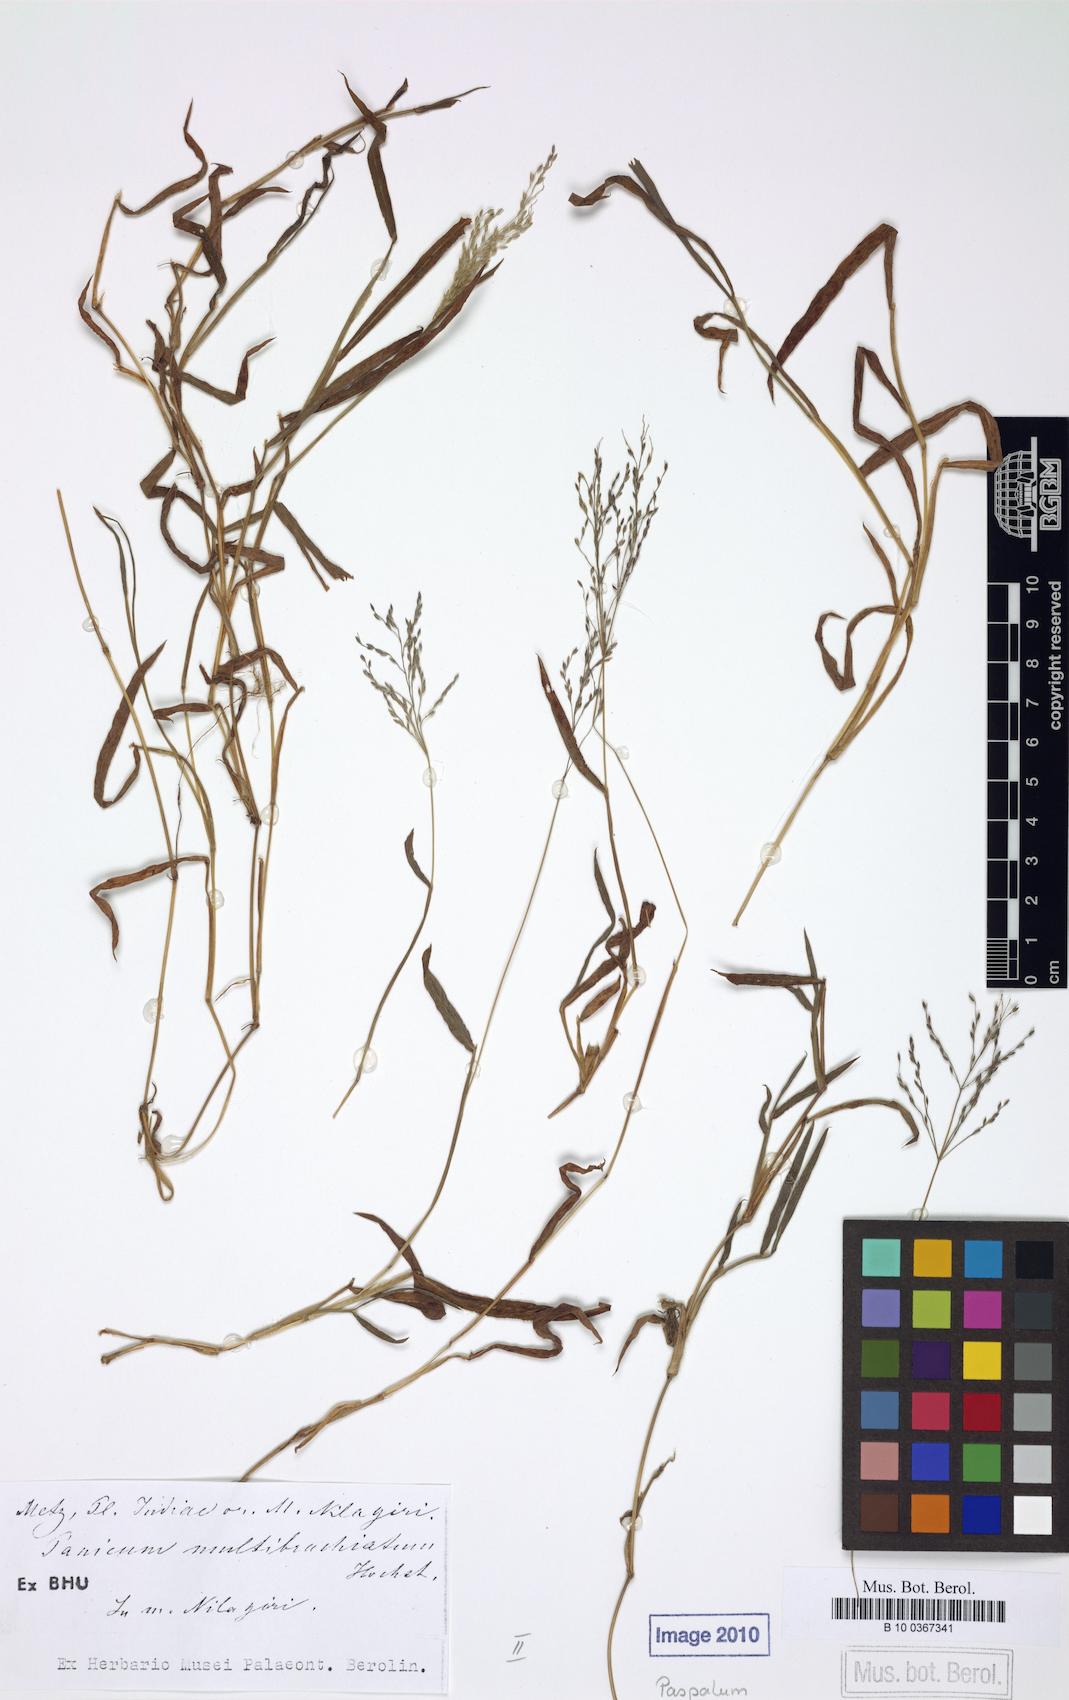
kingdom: Plantae
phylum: Tracheophyta
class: Liliopsida
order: Poales
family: Poaceae
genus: Digitaria
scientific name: Digitaria wallichiana
